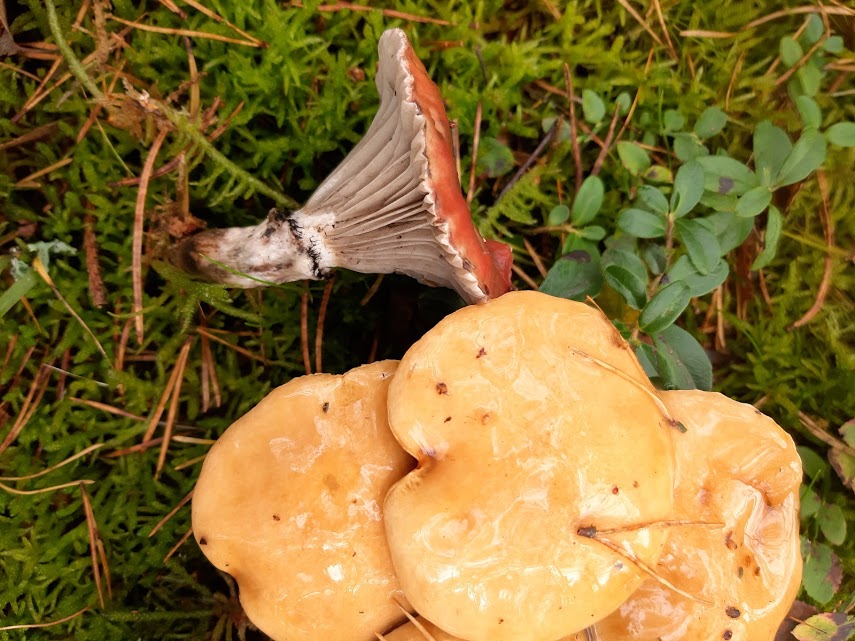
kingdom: Fungi
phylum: Basidiomycota
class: Agaricomycetes
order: Boletales
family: Gomphidiaceae
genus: Gomphidius
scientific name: Gomphidius roseus
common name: rosenrød slimslør
